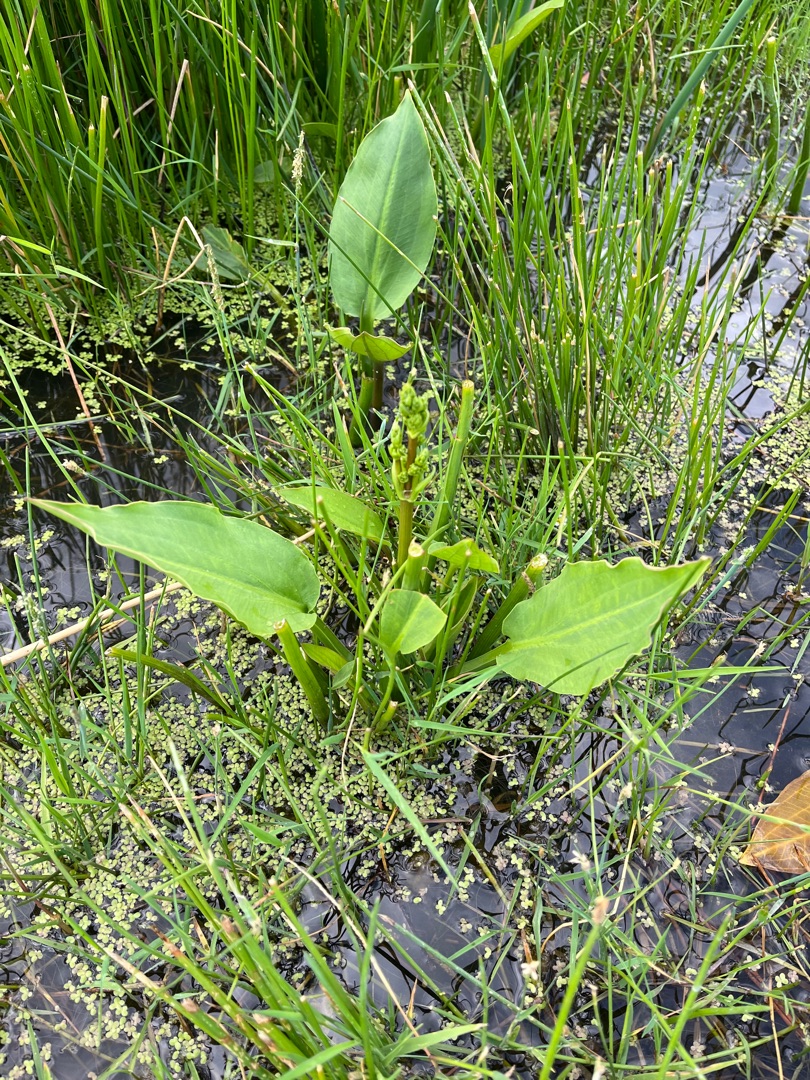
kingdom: Plantae
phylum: Tracheophyta
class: Liliopsida
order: Alismatales
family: Alismataceae
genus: Alisma
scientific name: Alisma plantago-aquatica
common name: Vejbred-skeblad
